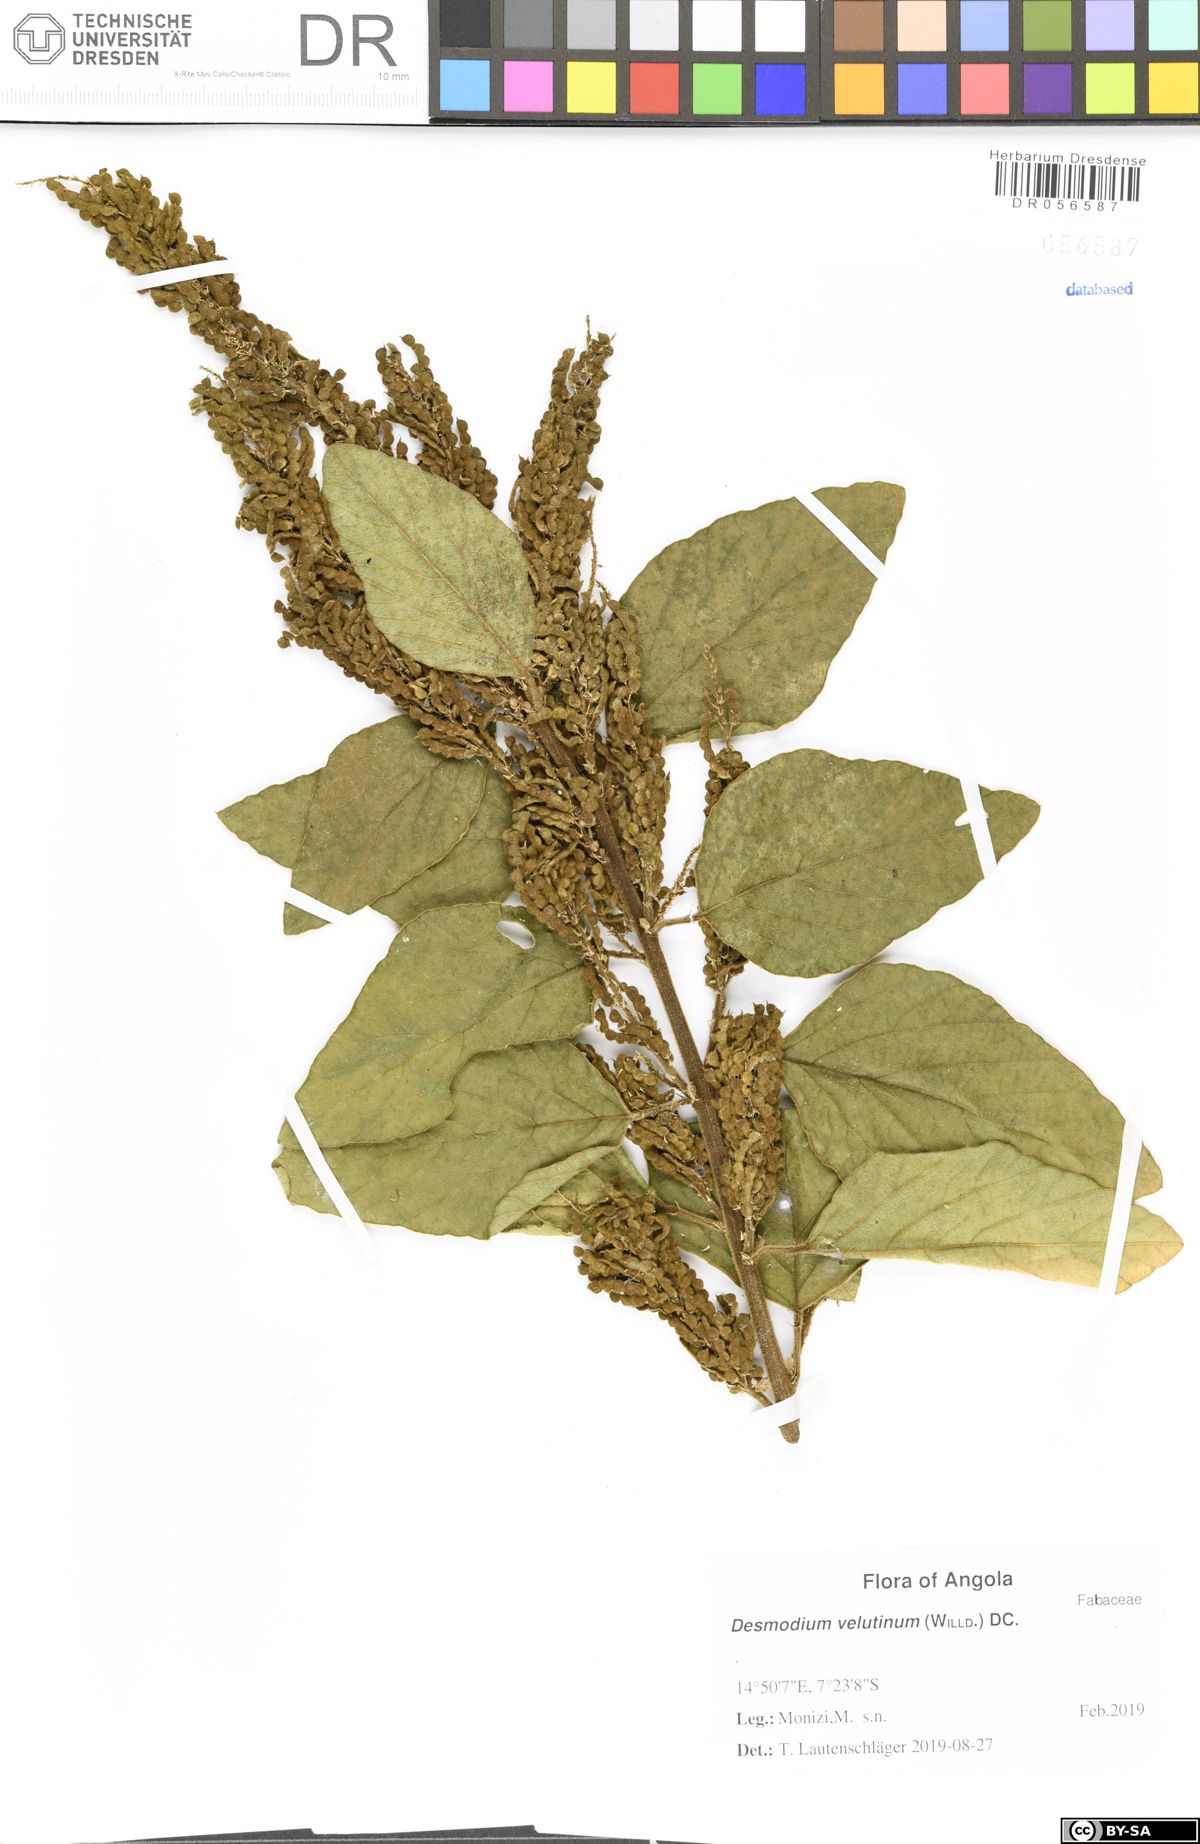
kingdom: Plantae
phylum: Tracheophyta
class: Magnoliopsida
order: Fabales
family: Fabaceae
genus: Polhillides
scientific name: Polhillides velutina
